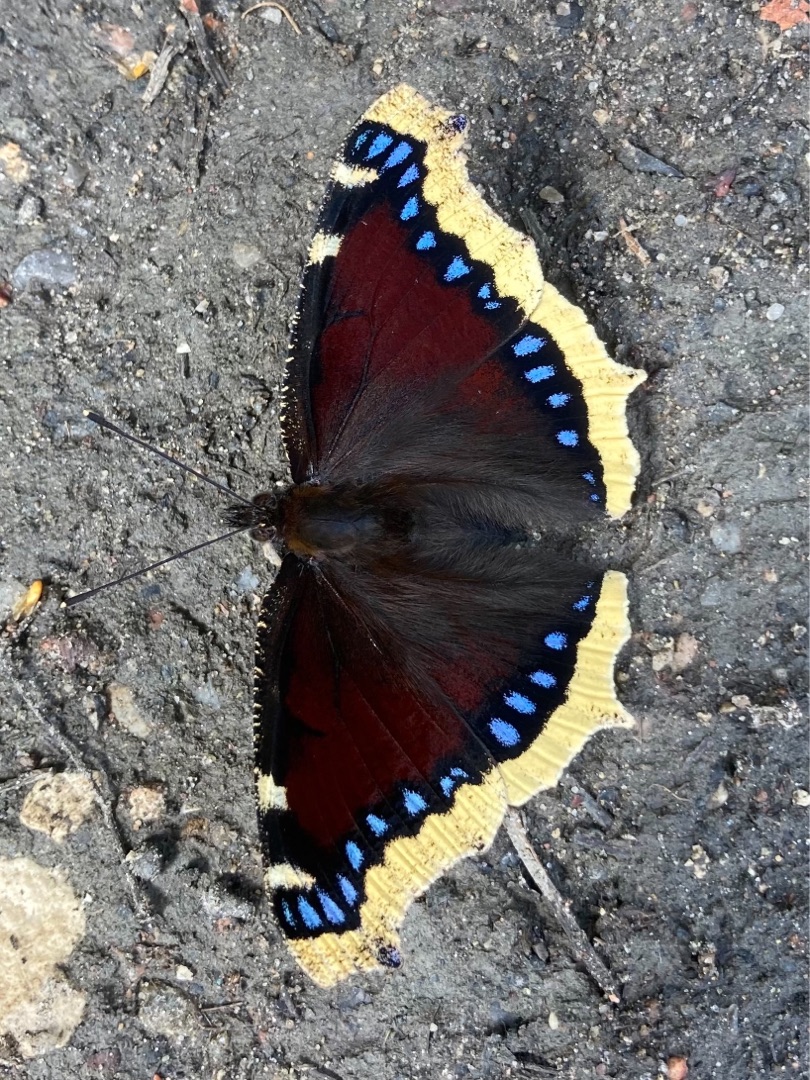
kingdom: Animalia
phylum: Arthropoda
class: Insecta
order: Lepidoptera
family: Nymphalidae
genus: Nymphalis
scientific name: Nymphalis antiopa
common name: Sørgekåbe
